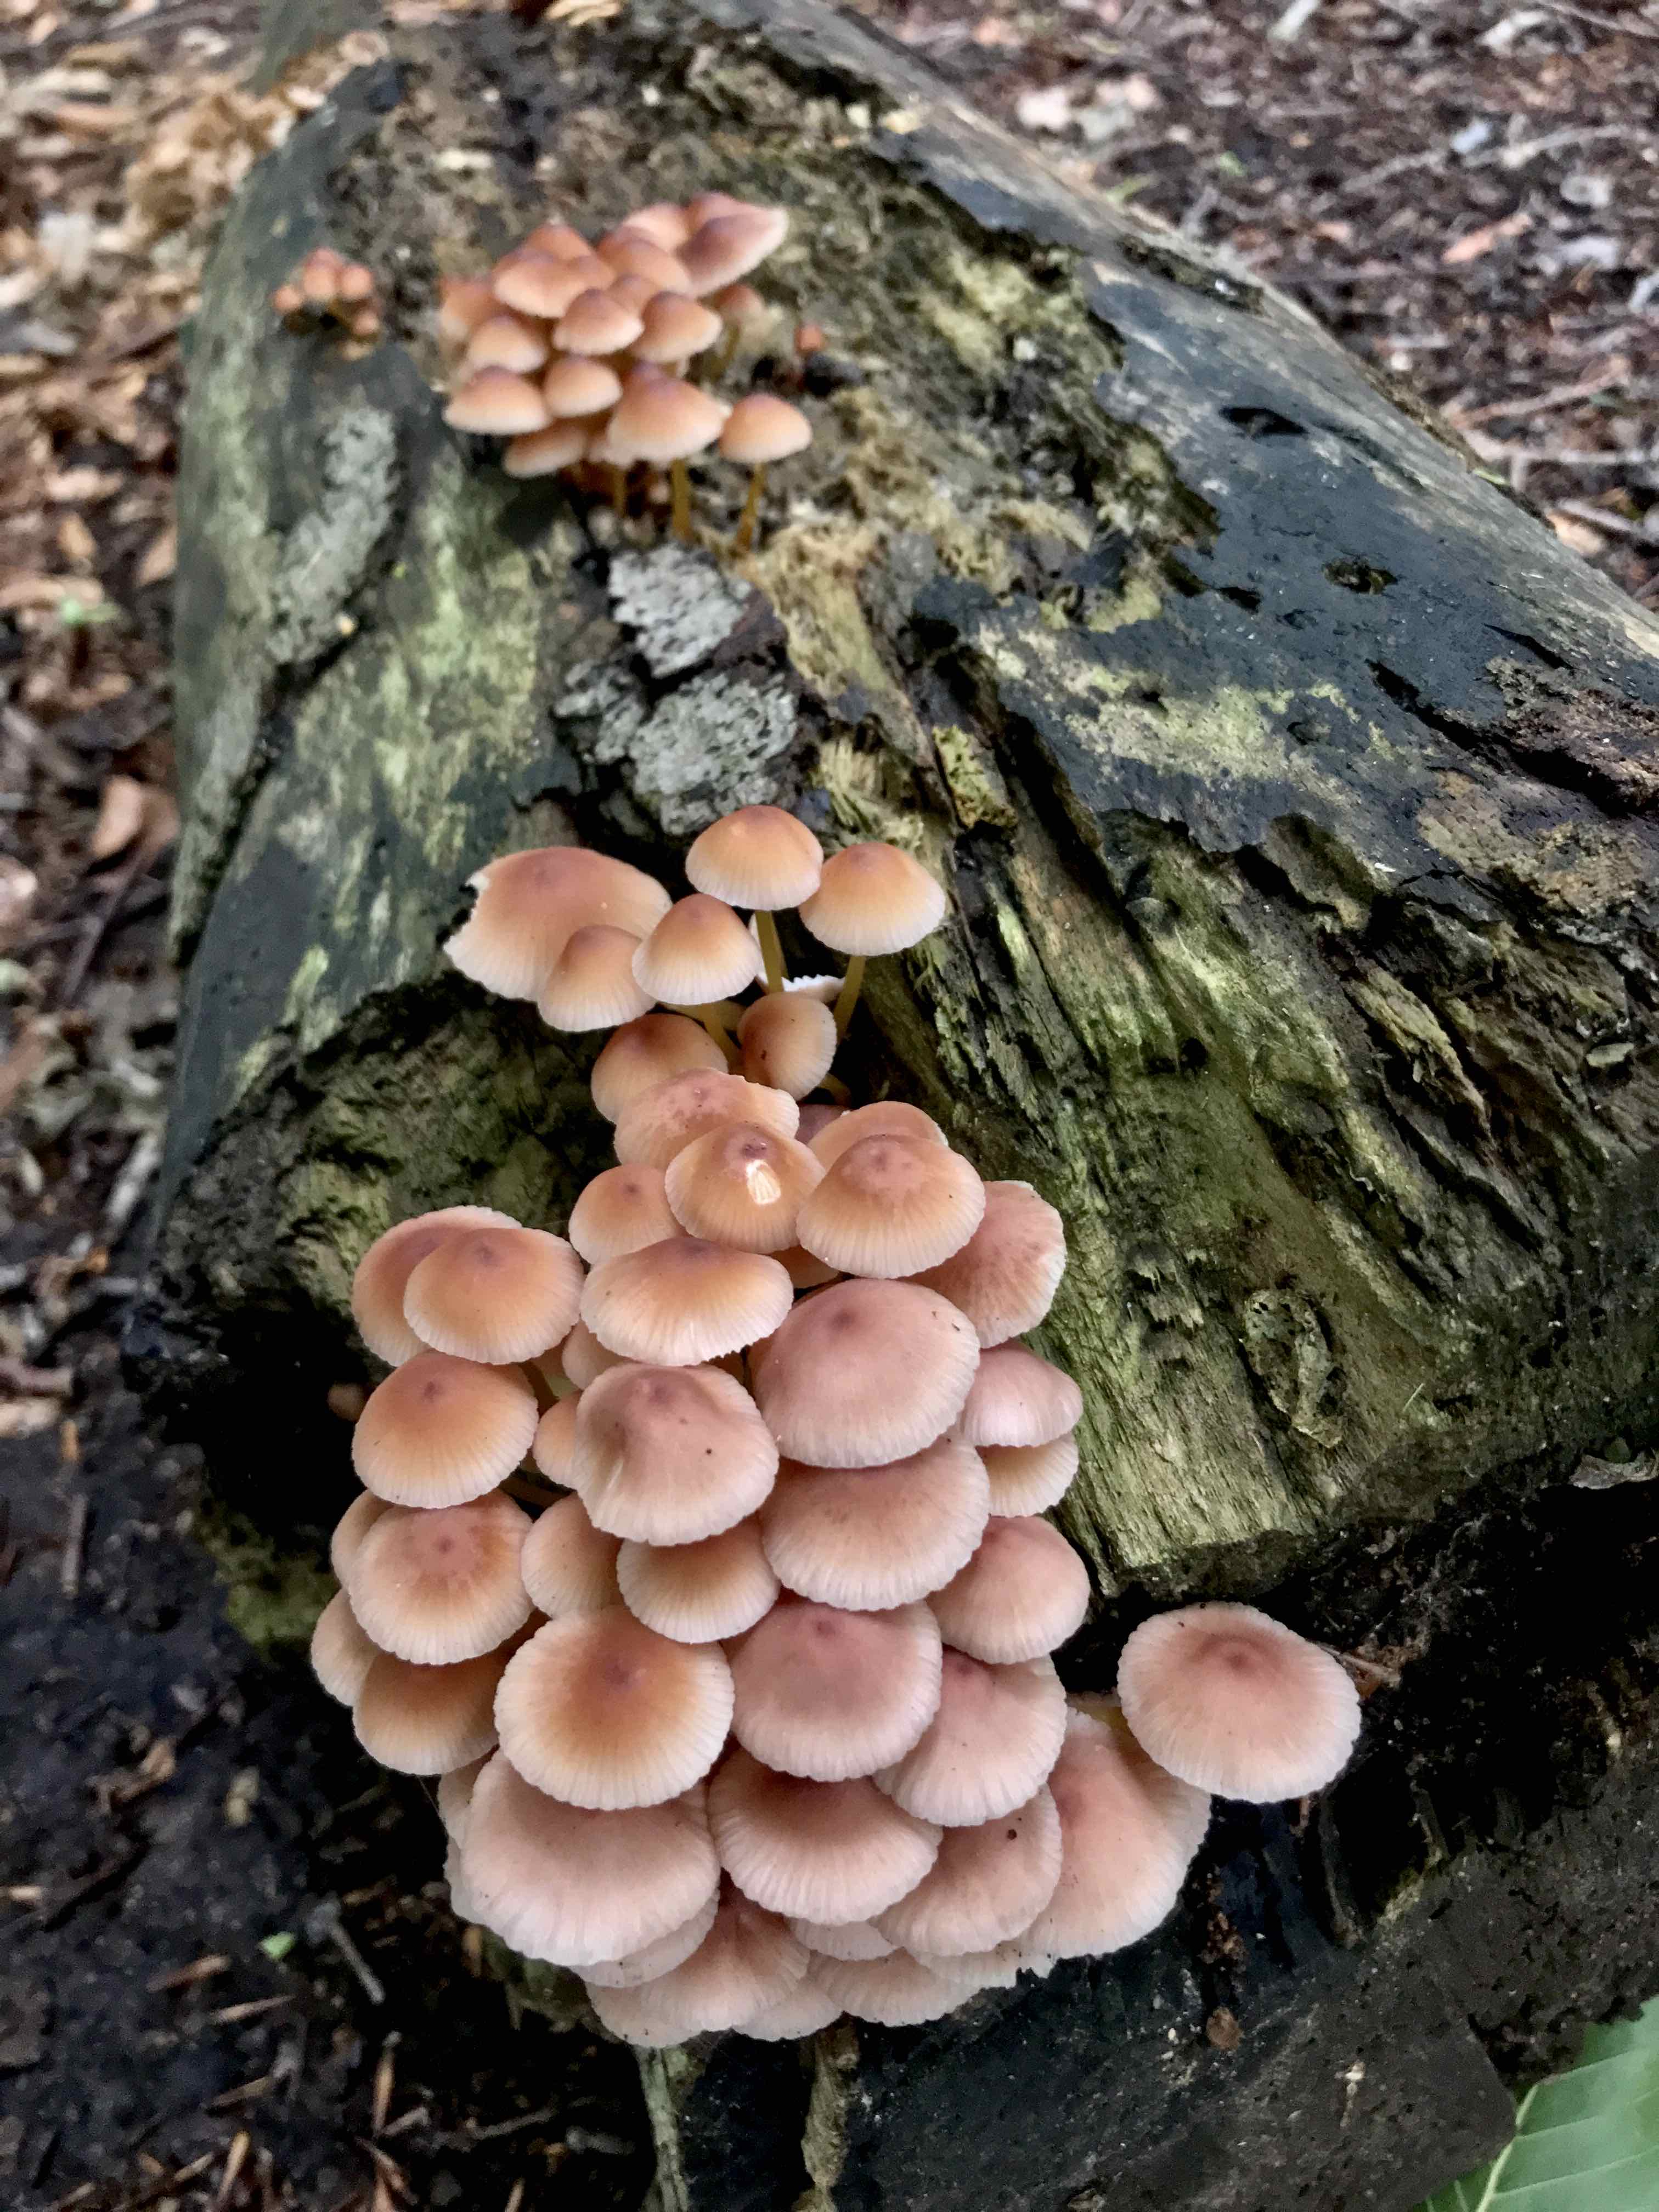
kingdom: Fungi
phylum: Basidiomycota
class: Agaricomycetes
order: Agaricales
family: Mycenaceae
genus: Mycena
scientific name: Mycena renati
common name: smuk huesvamp
